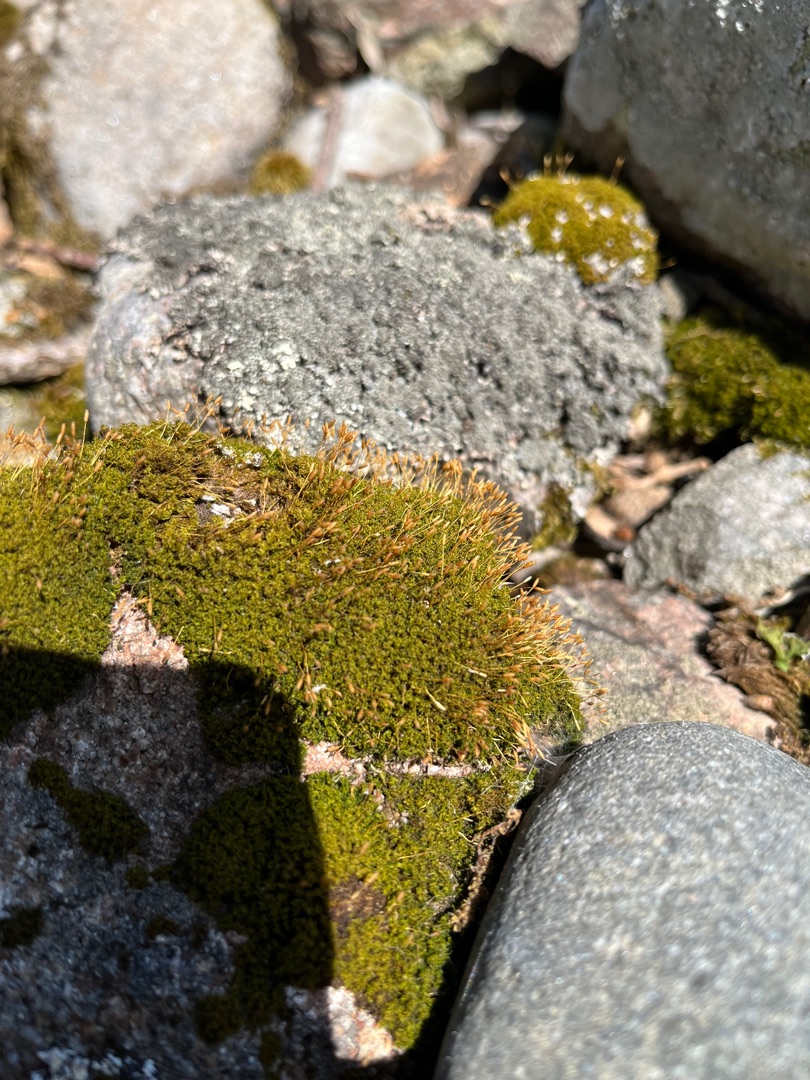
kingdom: Plantae
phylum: Bryophyta
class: Bryopsida
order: Dicranales
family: Rhabdoweisiaceae
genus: Dicranoweisia
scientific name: Dicranoweisia cirrata
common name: Almindelig krøltuemos
